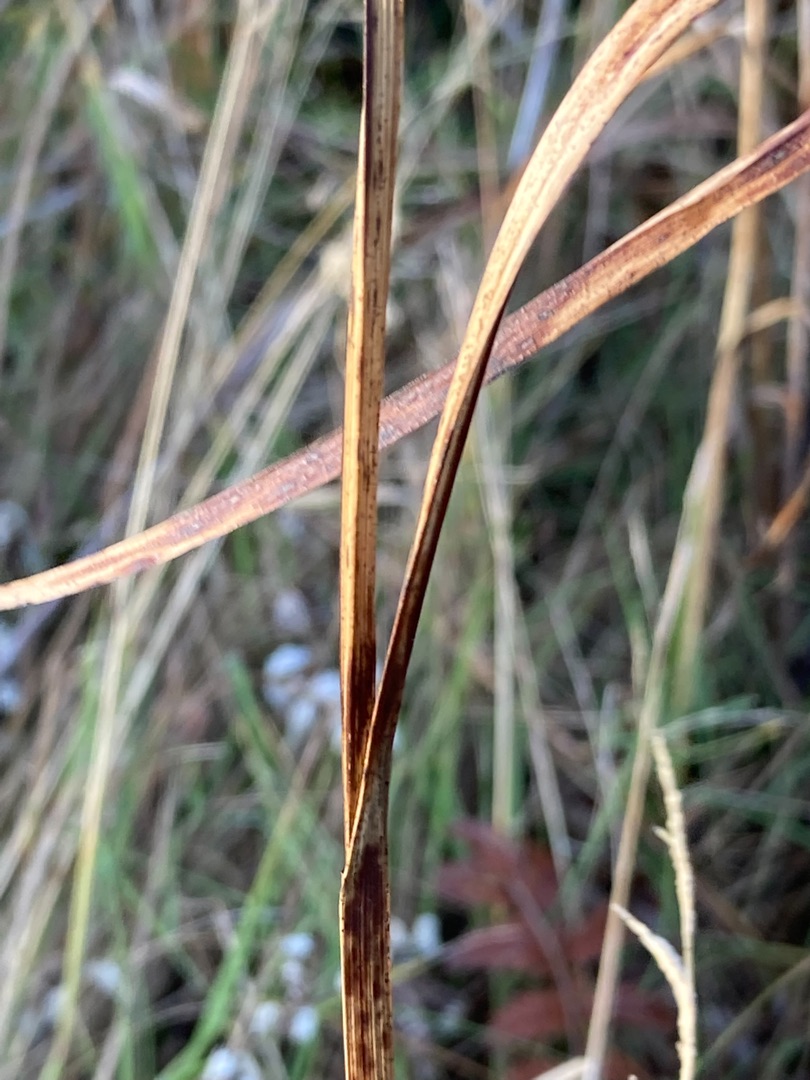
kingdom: Plantae
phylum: Tracheophyta
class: Liliopsida
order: Poales
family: Cyperaceae
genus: Bolboschoenus
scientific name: Bolboschoenus maritimus
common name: Strand-kogleaks
